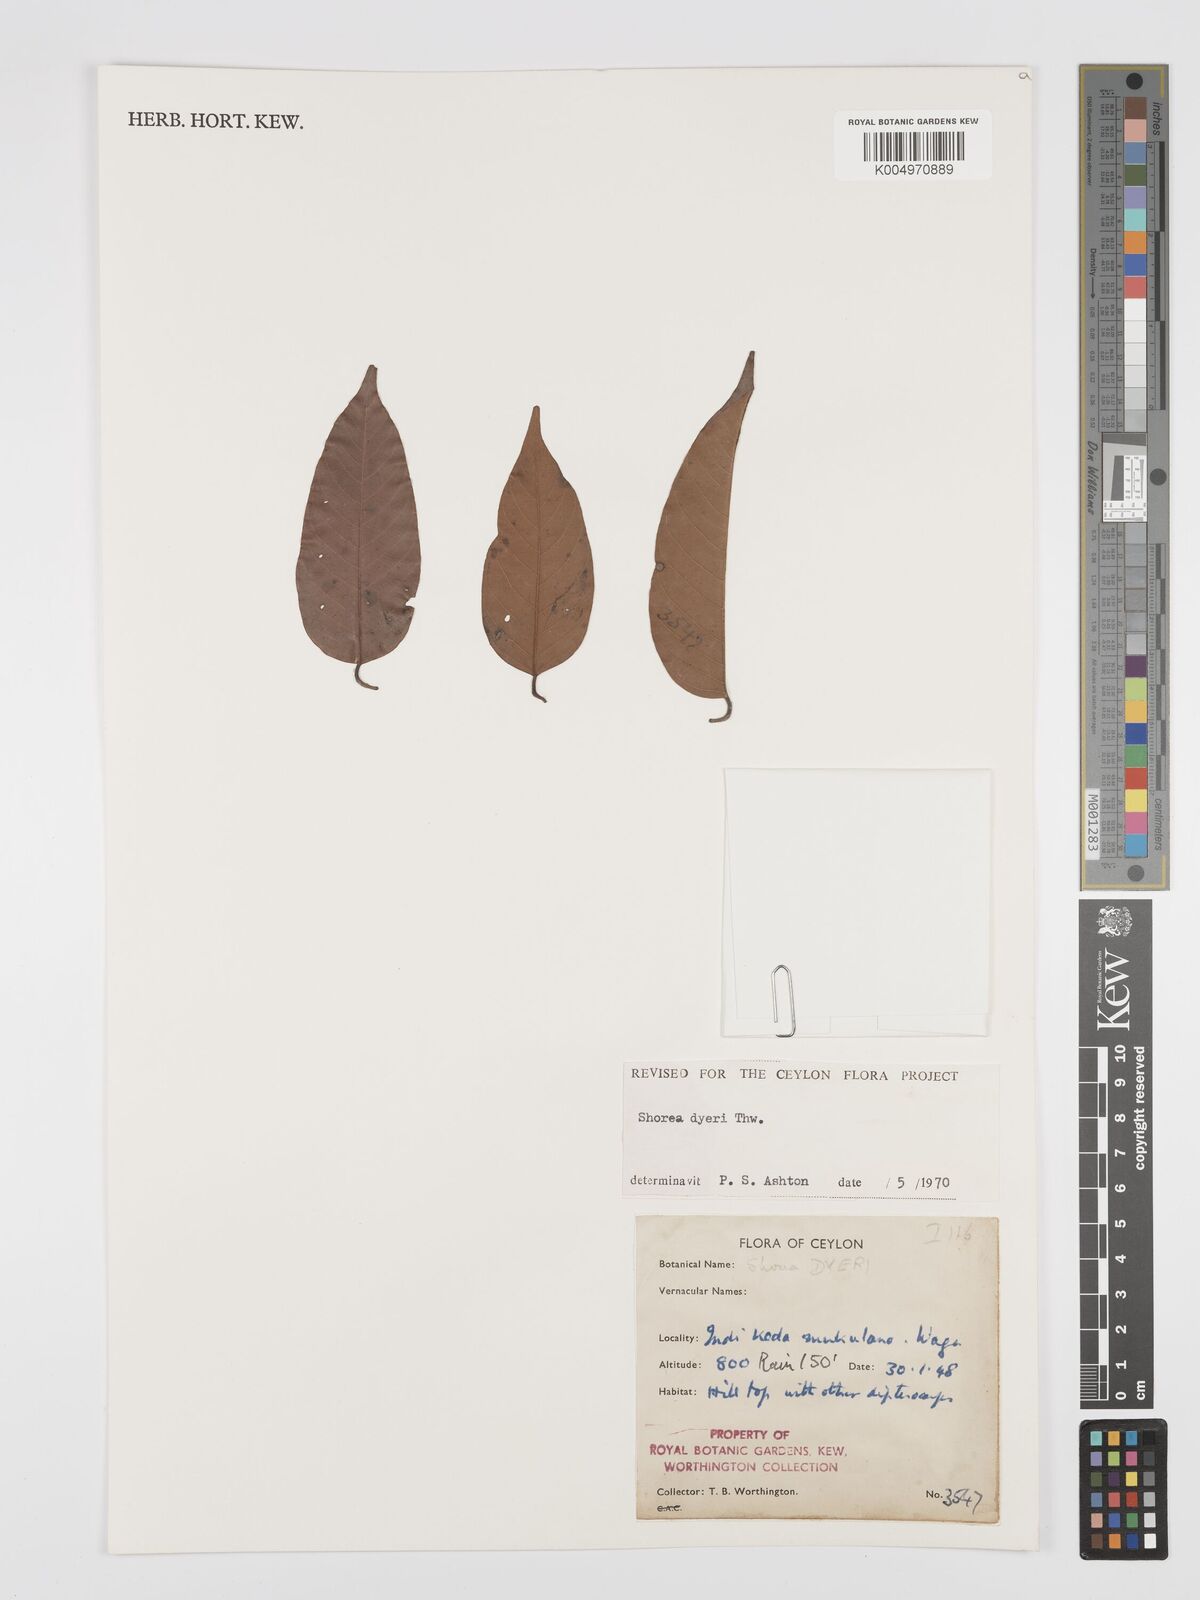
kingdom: Plantae
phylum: Tracheophyta
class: Magnoliopsida
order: Malvales
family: Dipterocarpaceae
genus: Shorea
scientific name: Shorea dyeri
